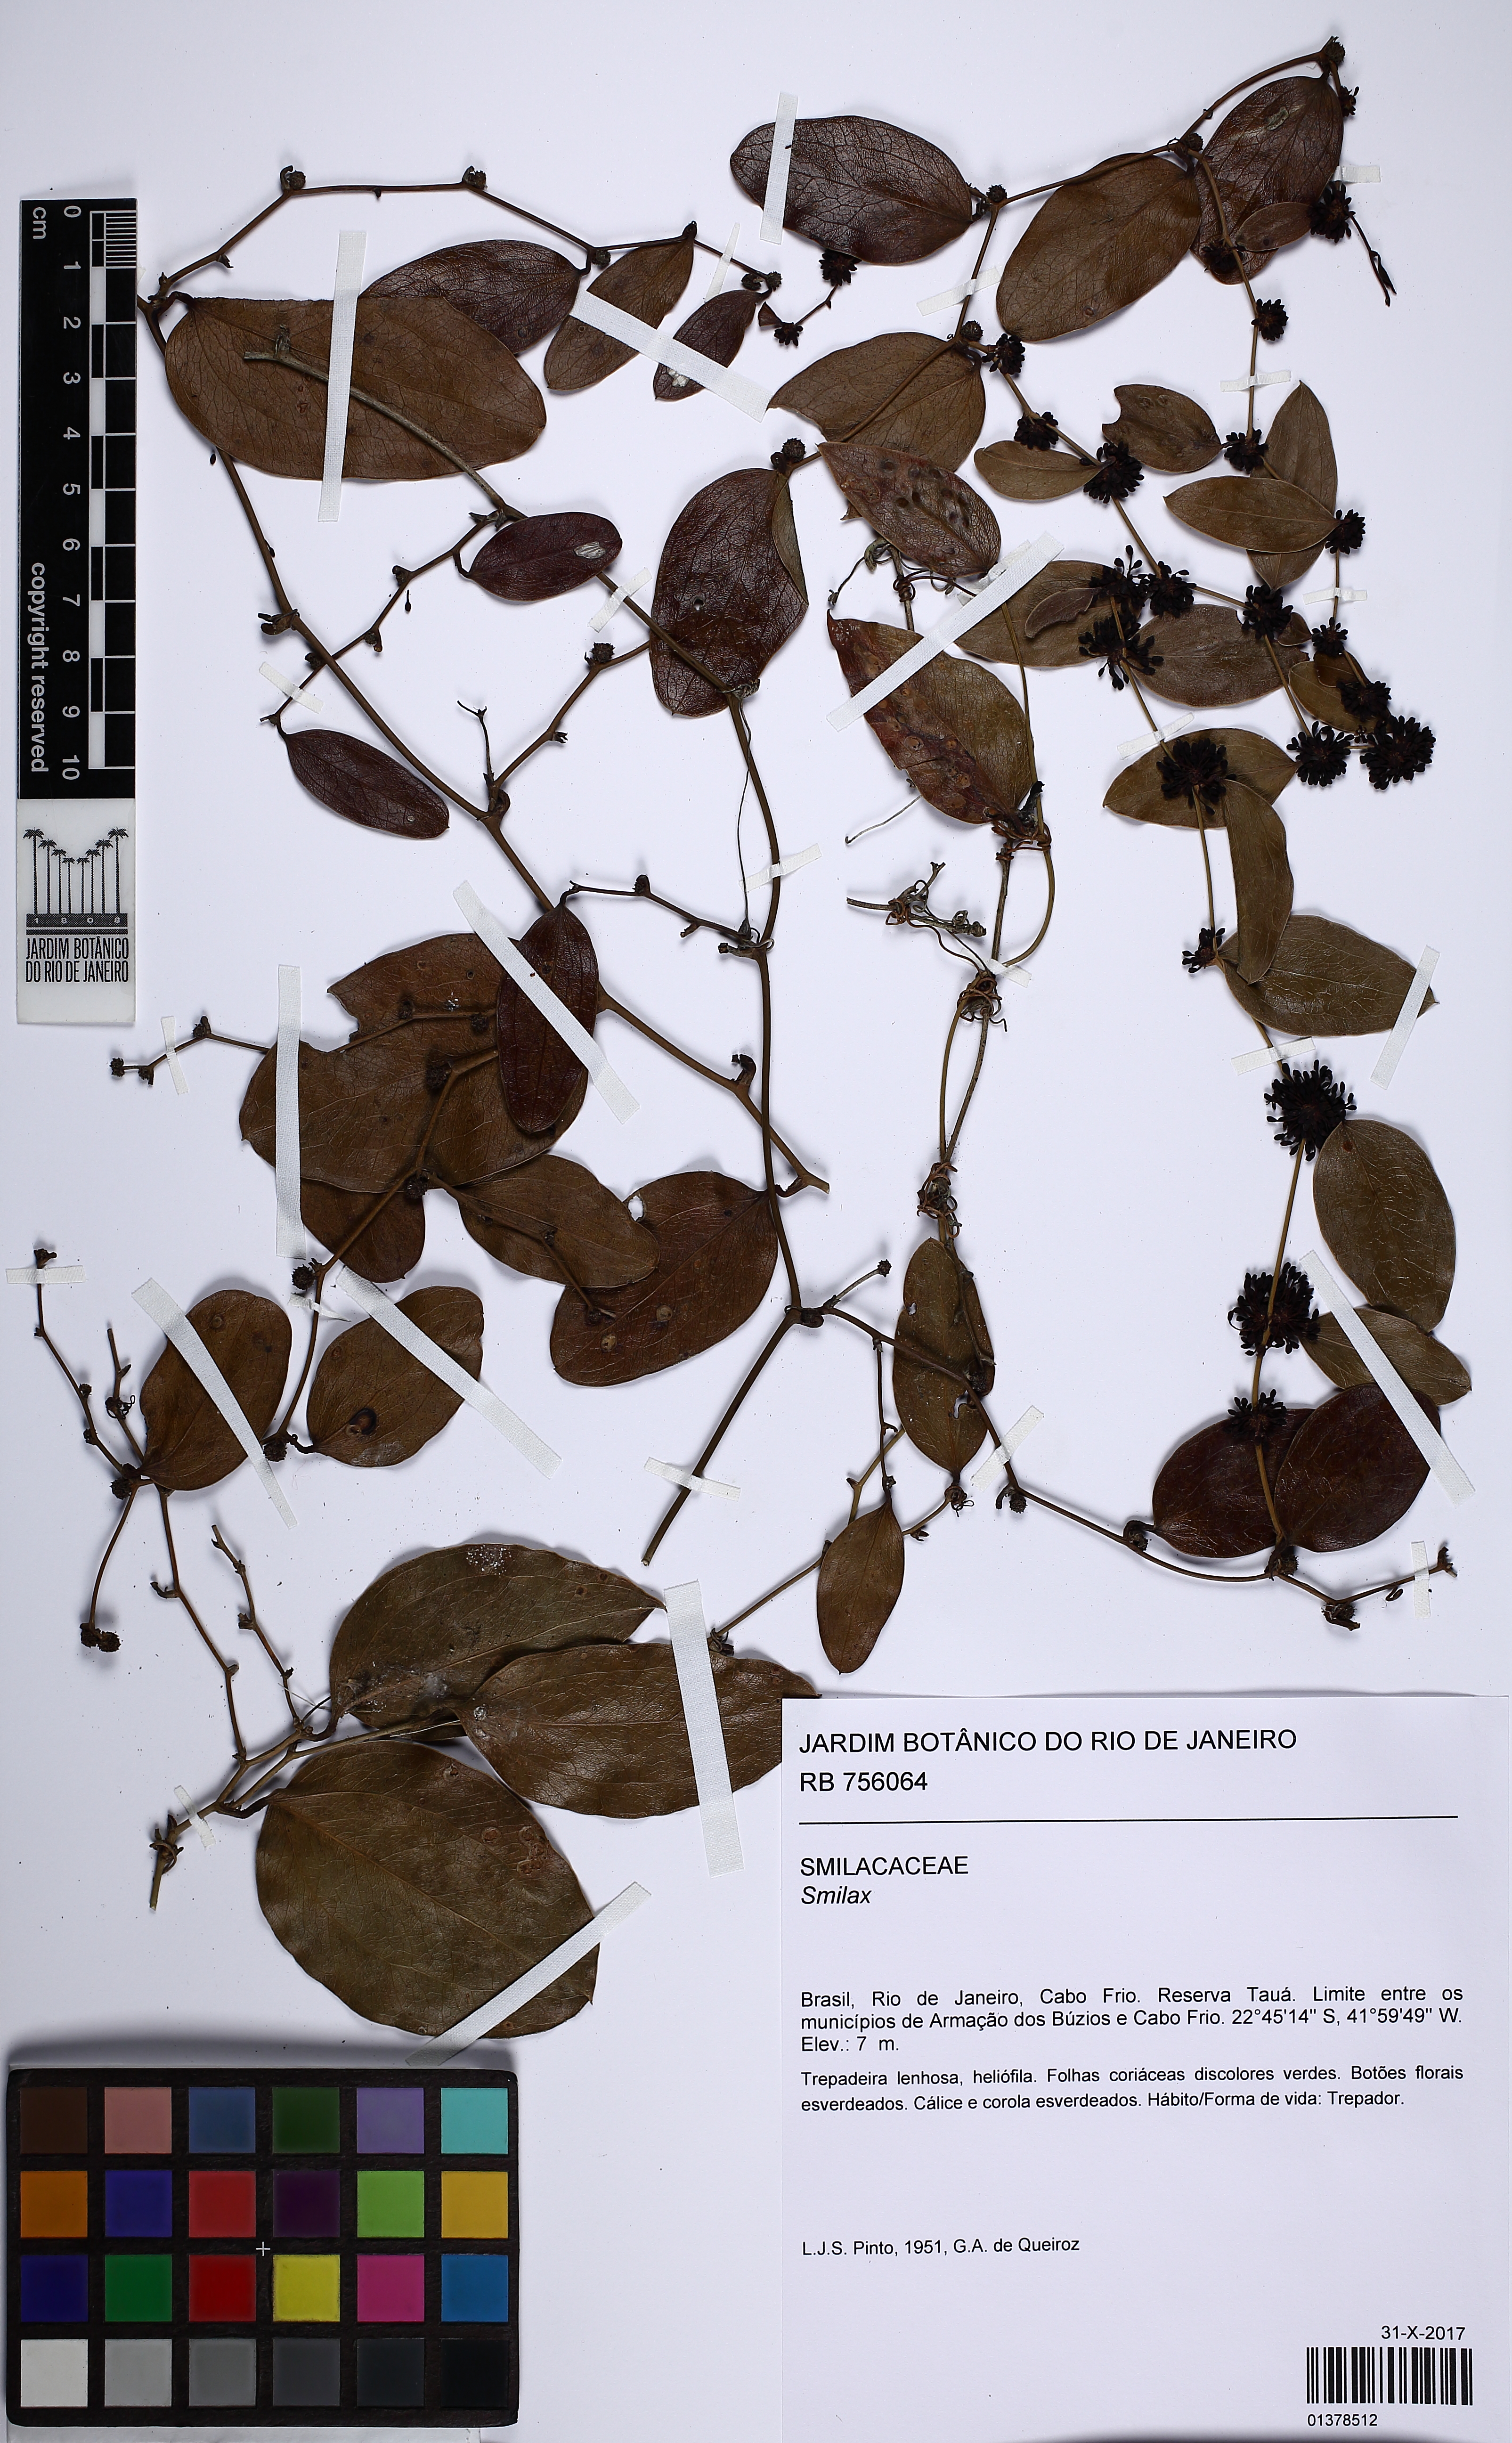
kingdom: Plantae
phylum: Tracheophyta
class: Liliopsida
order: Liliales
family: Smilacaceae
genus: Smilax
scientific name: Smilax
